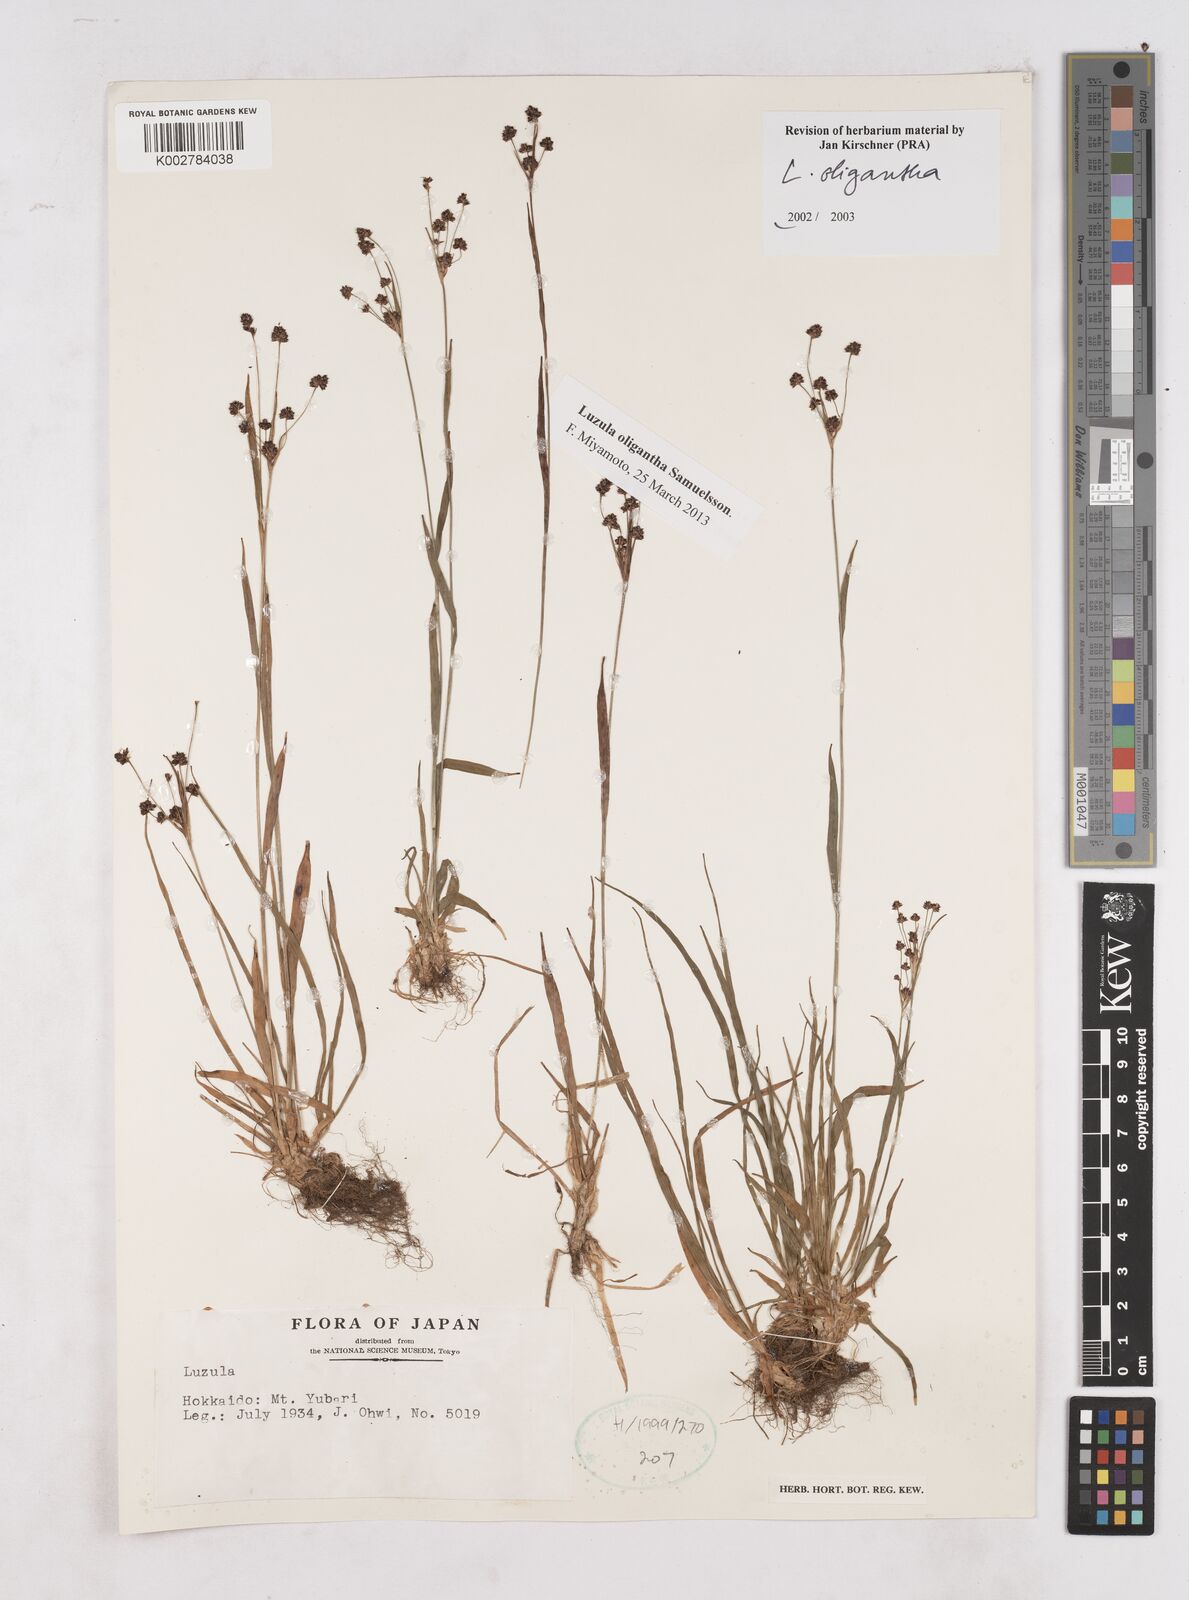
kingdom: Plantae
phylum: Tracheophyta
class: Liliopsida
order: Poales
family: Juncaceae
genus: Luzula
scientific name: Luzula oligantha
